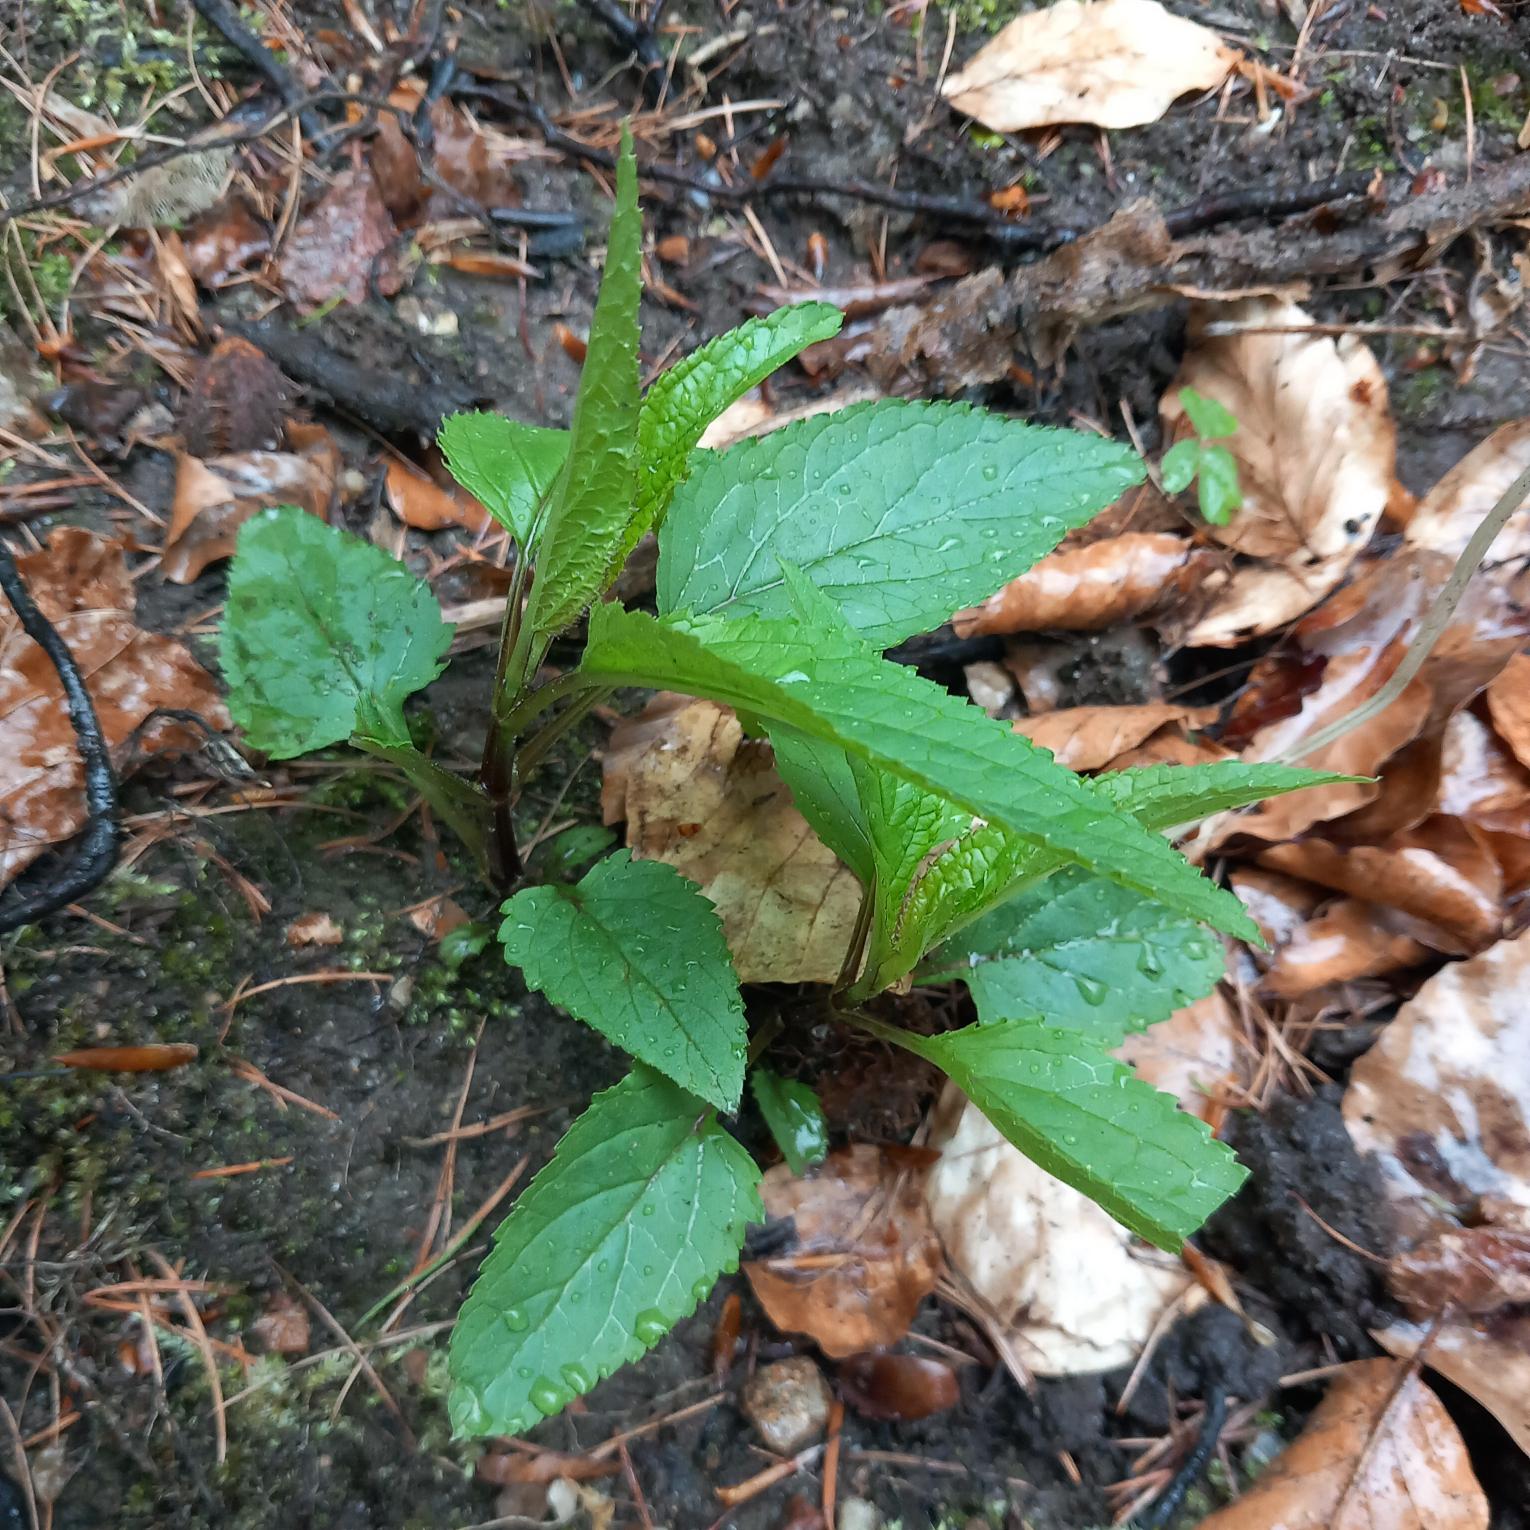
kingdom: Plantae
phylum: Tracheophyta
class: Magnoliopsida
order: Lamiales
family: Scrophulariaceae
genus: Scrophularia
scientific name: Scrophularia nodosa
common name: Knoldet brunrod
